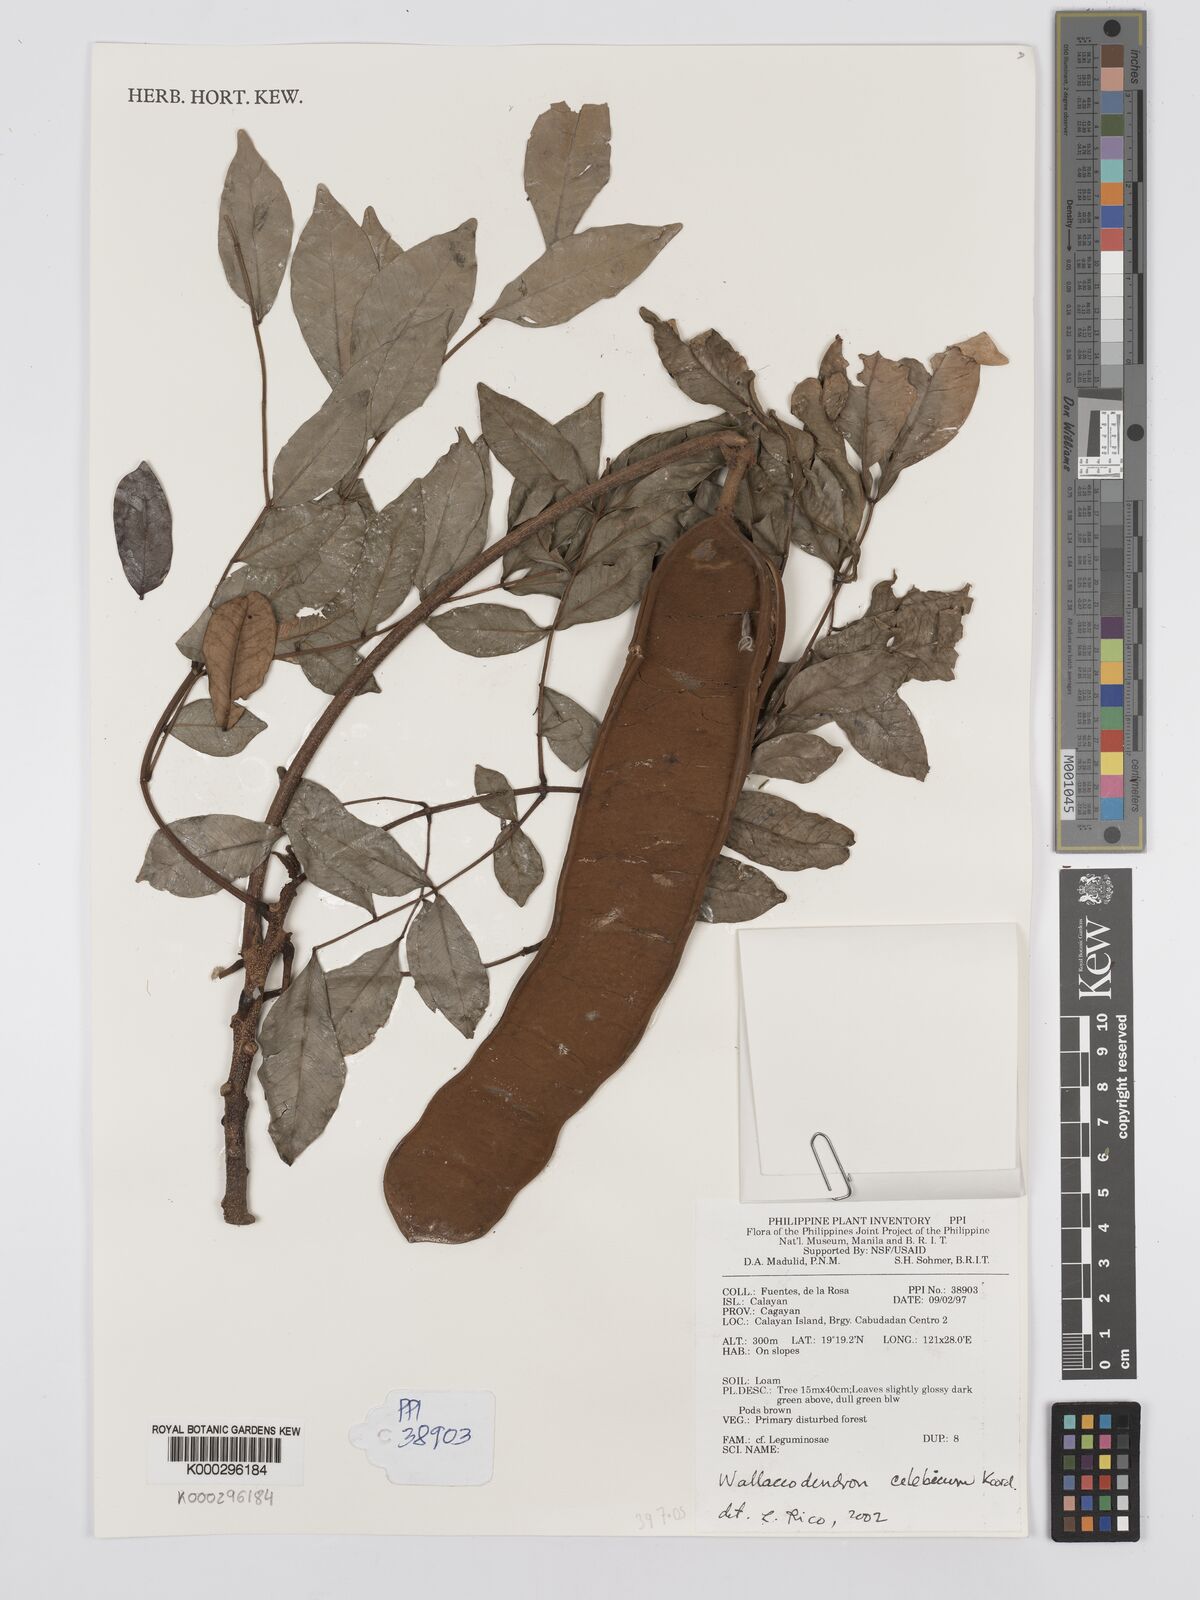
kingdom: Plantae
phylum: Tracheophyta
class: Magnoliopsida
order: Fabales
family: Fabaceae
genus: Wallaceodendron
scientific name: Wallaceodendron celebicum
